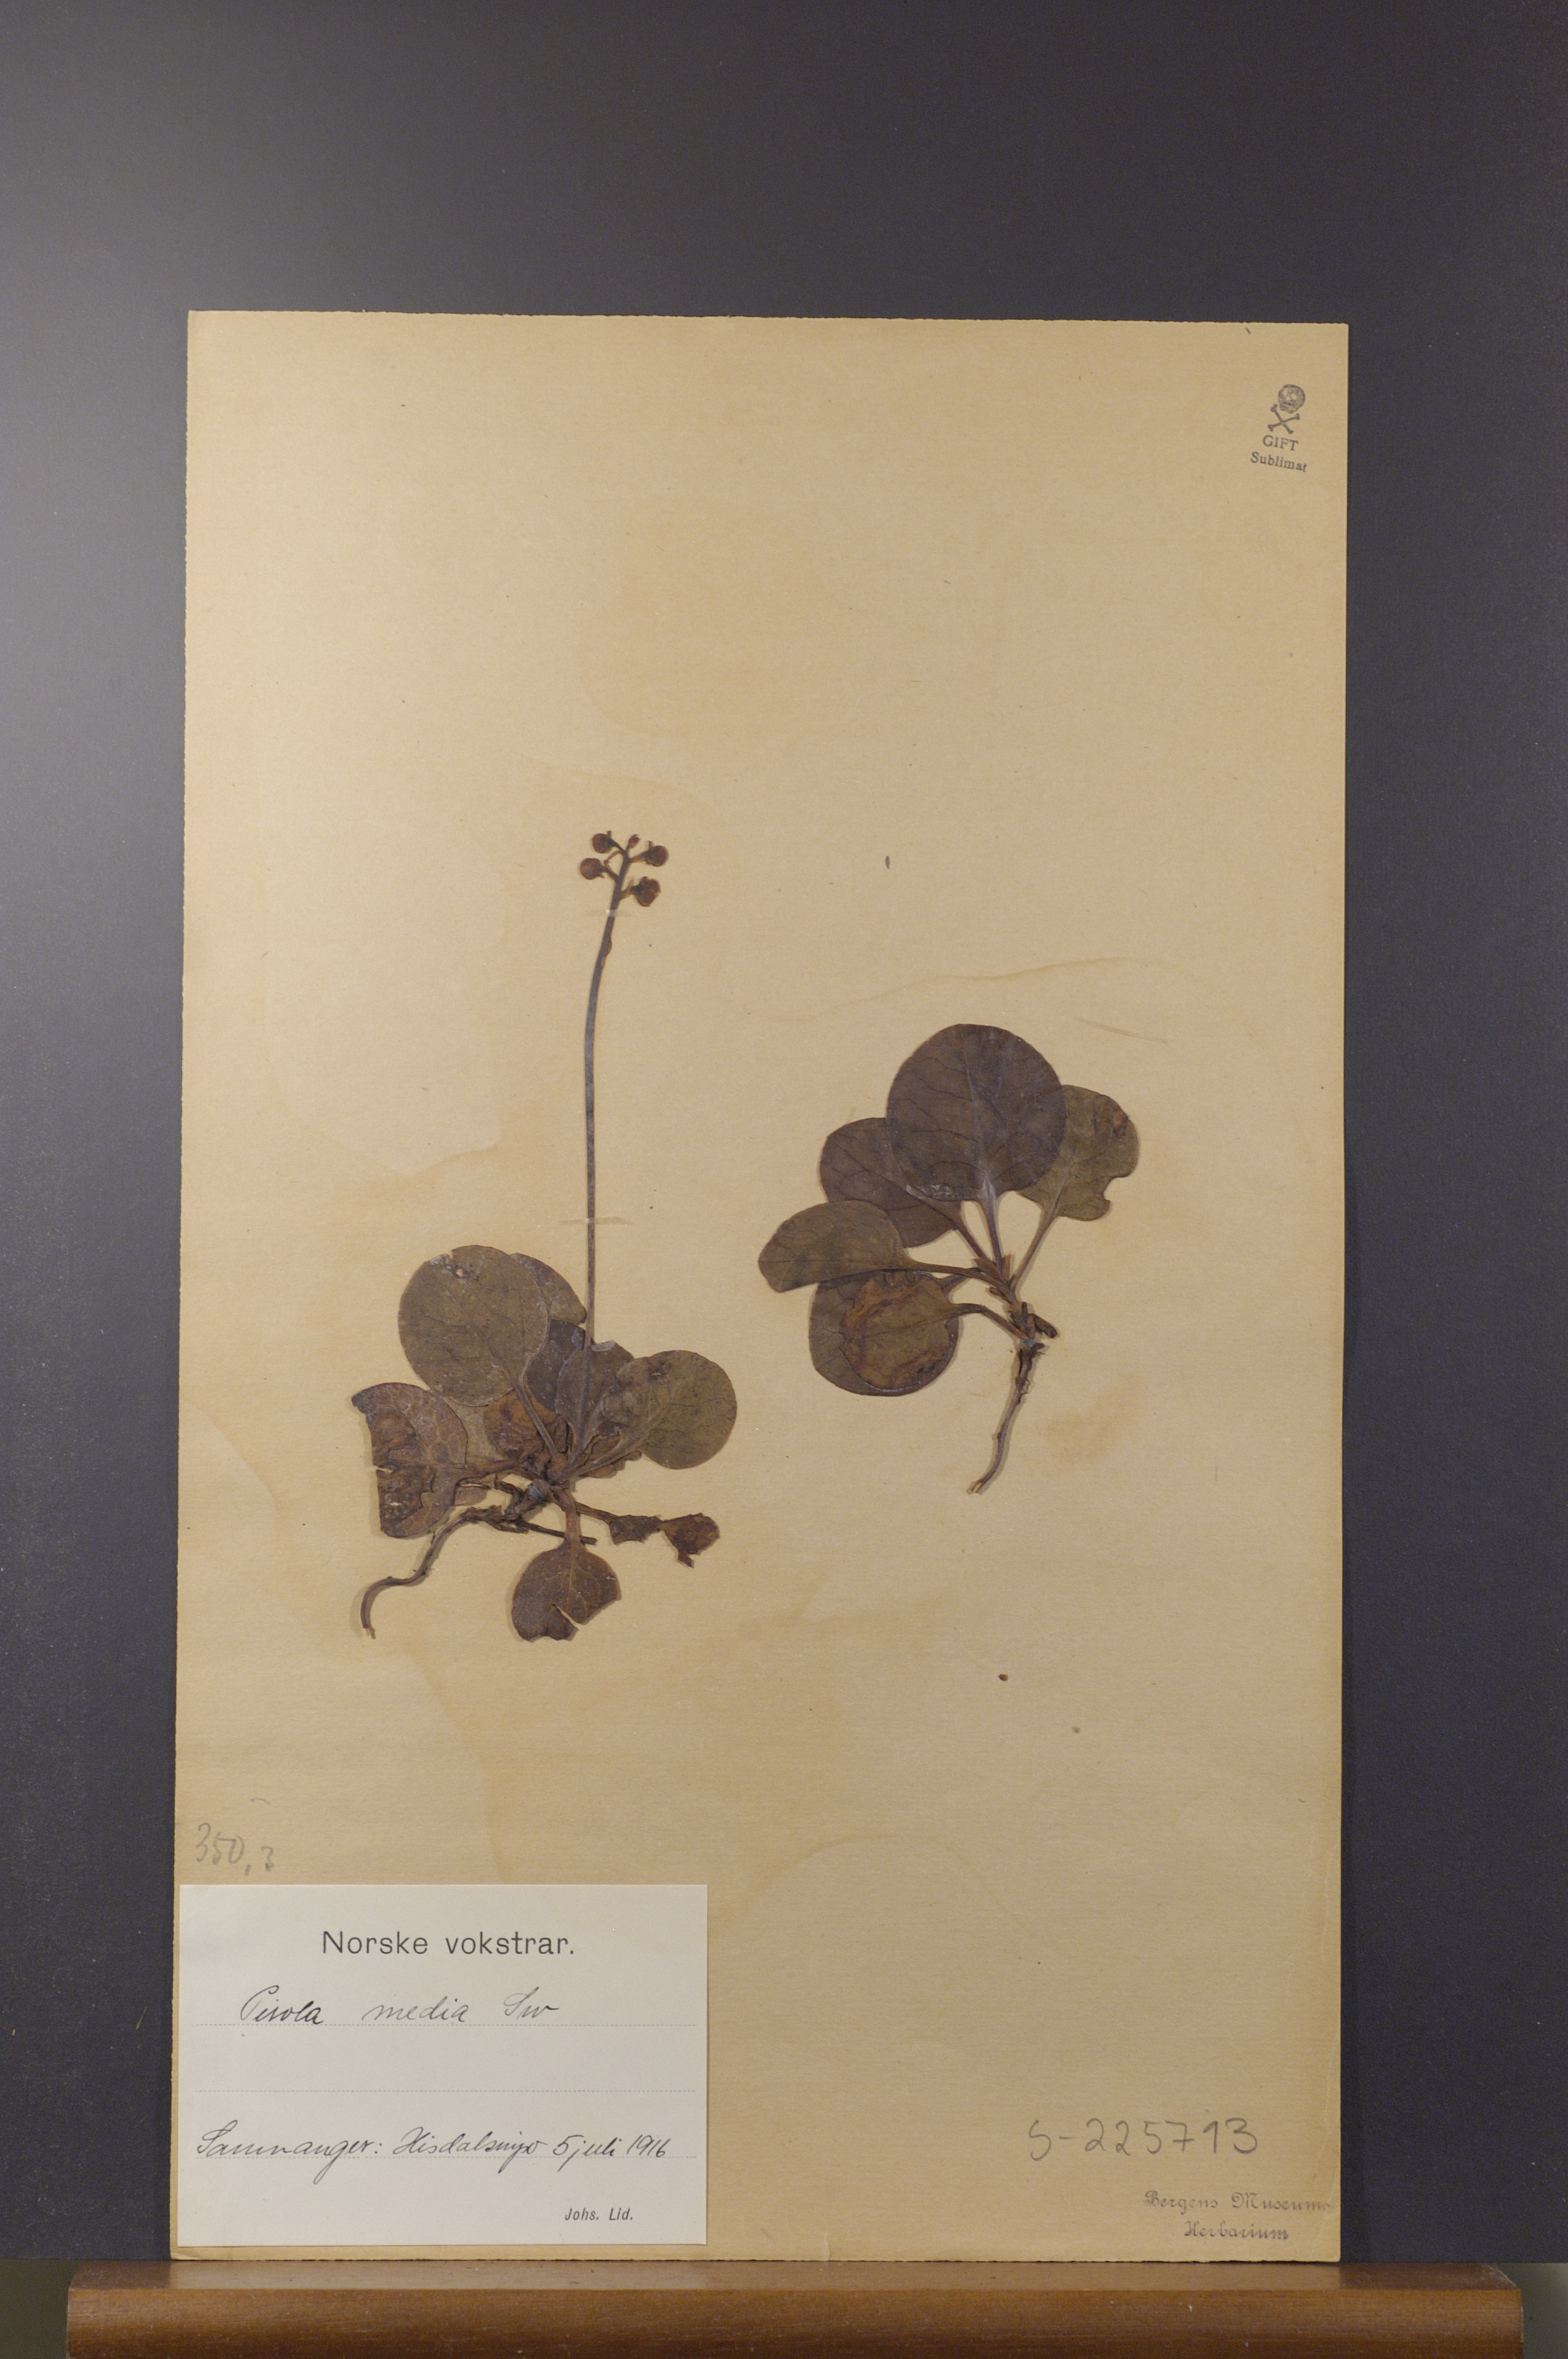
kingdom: Plantae
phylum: Tracheophyta
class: Magnoliopsida
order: Ericales
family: Ericaceae
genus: Pyrola
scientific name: Pyrola media
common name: Intermediate wintergreen
